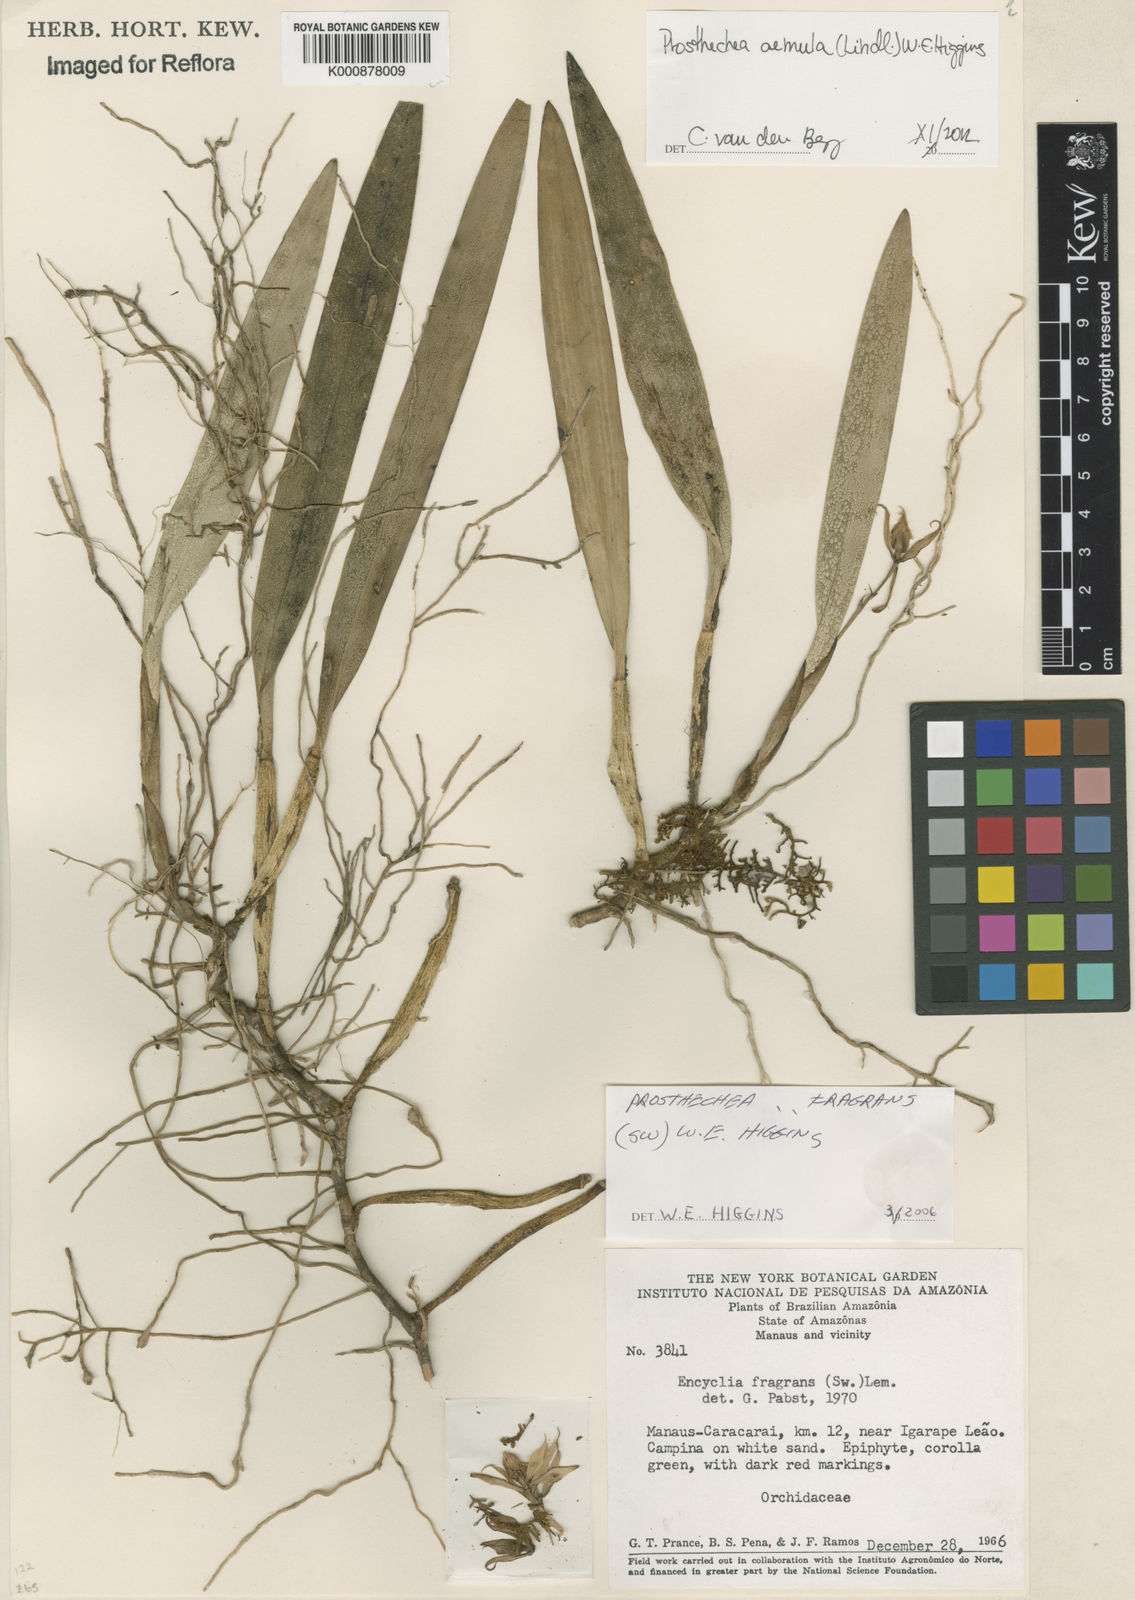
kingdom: Plantae
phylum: Tracheophyta
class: Liliopsida
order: Asparagales
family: Orchidaceae
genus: Prosthechea
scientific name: Prosthechea aemula
